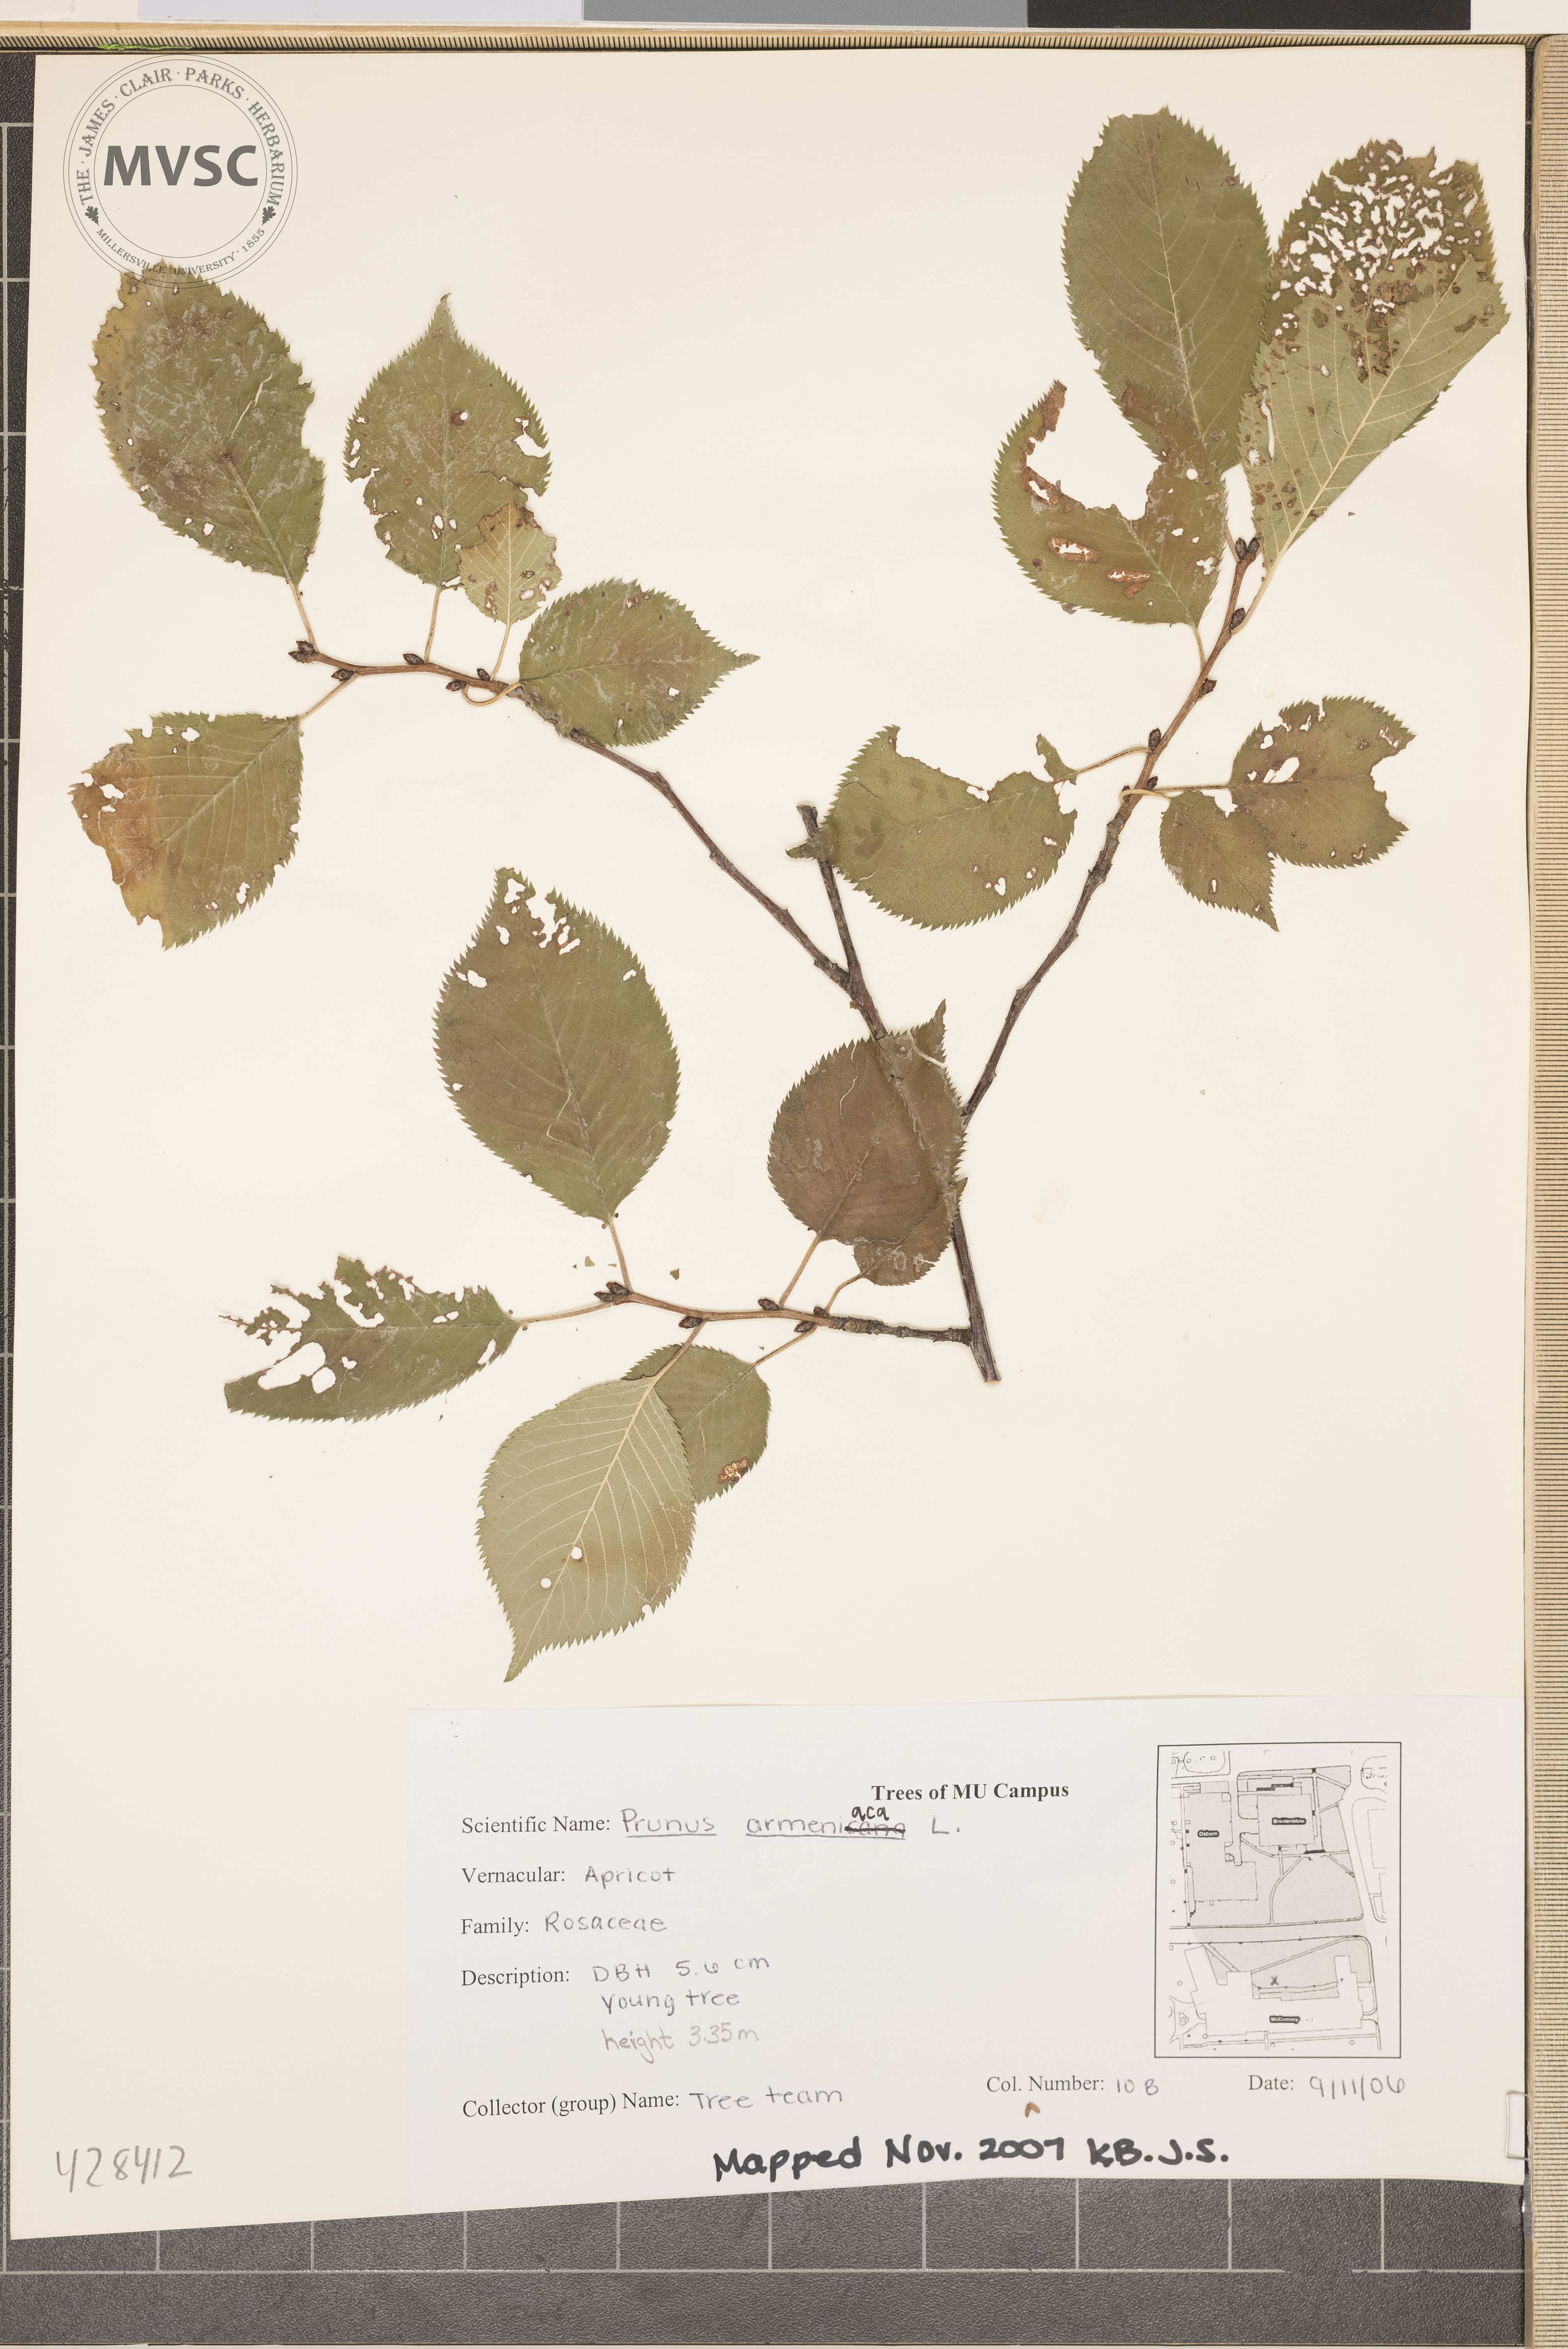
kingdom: Plantae
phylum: Tracheophyta
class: Magnoliopsida
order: Rosales
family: Rosaceae
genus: Prunus
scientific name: Prunus armeniaca
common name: Apricot
